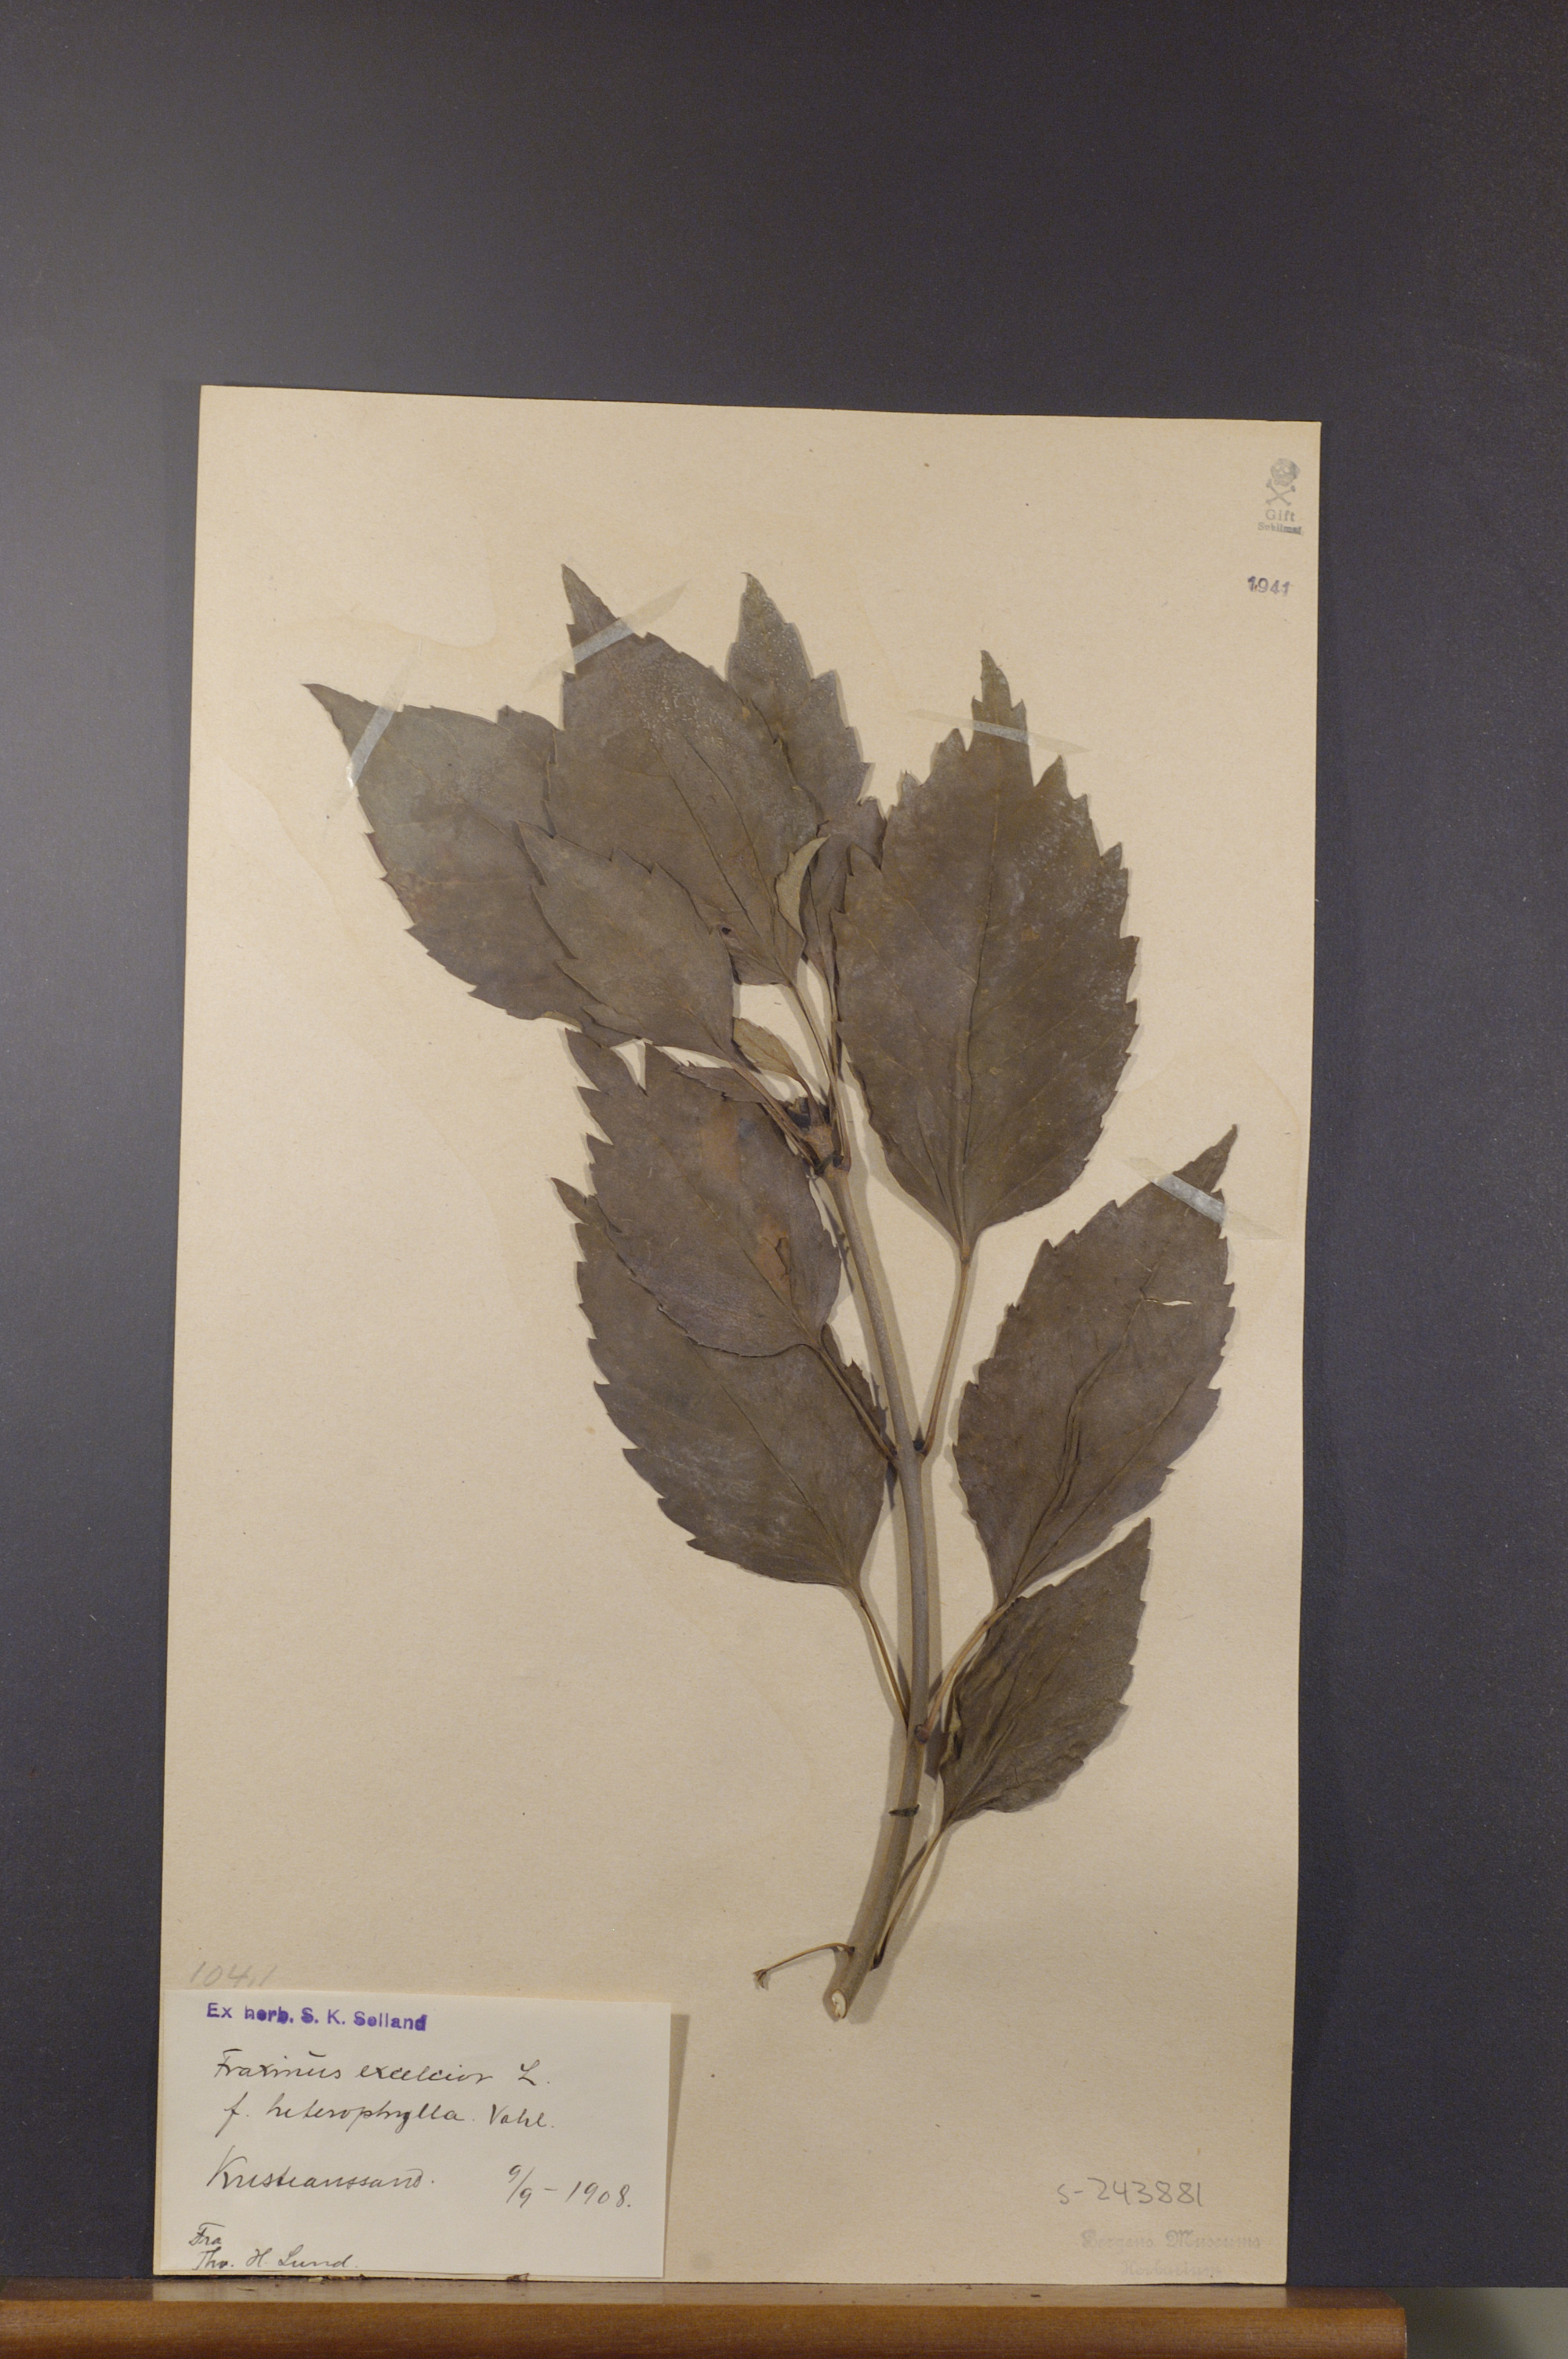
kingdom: Plantae
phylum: Tracheophyta
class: Magnoliopsida
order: Lamiales
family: Oleaceae
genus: Fraxinus
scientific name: Fraxinus excelsior
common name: European ash
